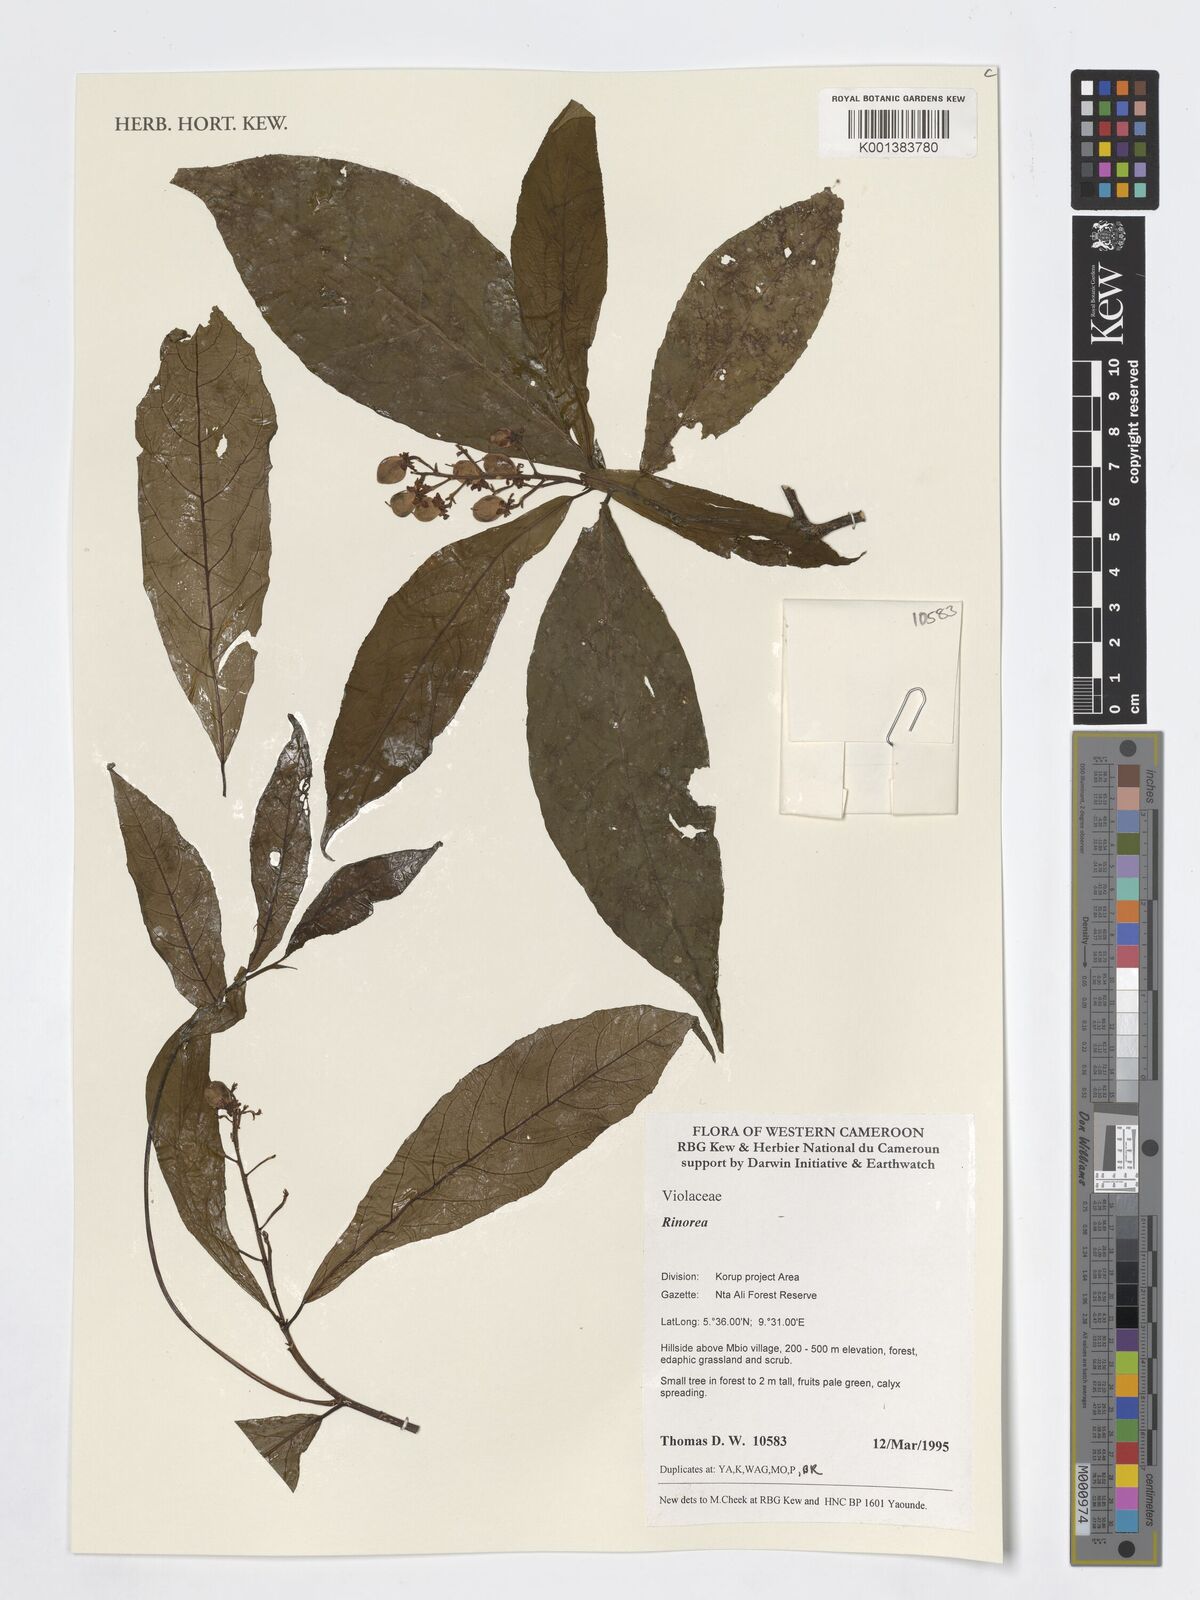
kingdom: Plantae
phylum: Tracheophyta
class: Magnoliopsida
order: Malpighiales
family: Violaceae
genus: Rinorea
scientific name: Rinorea
